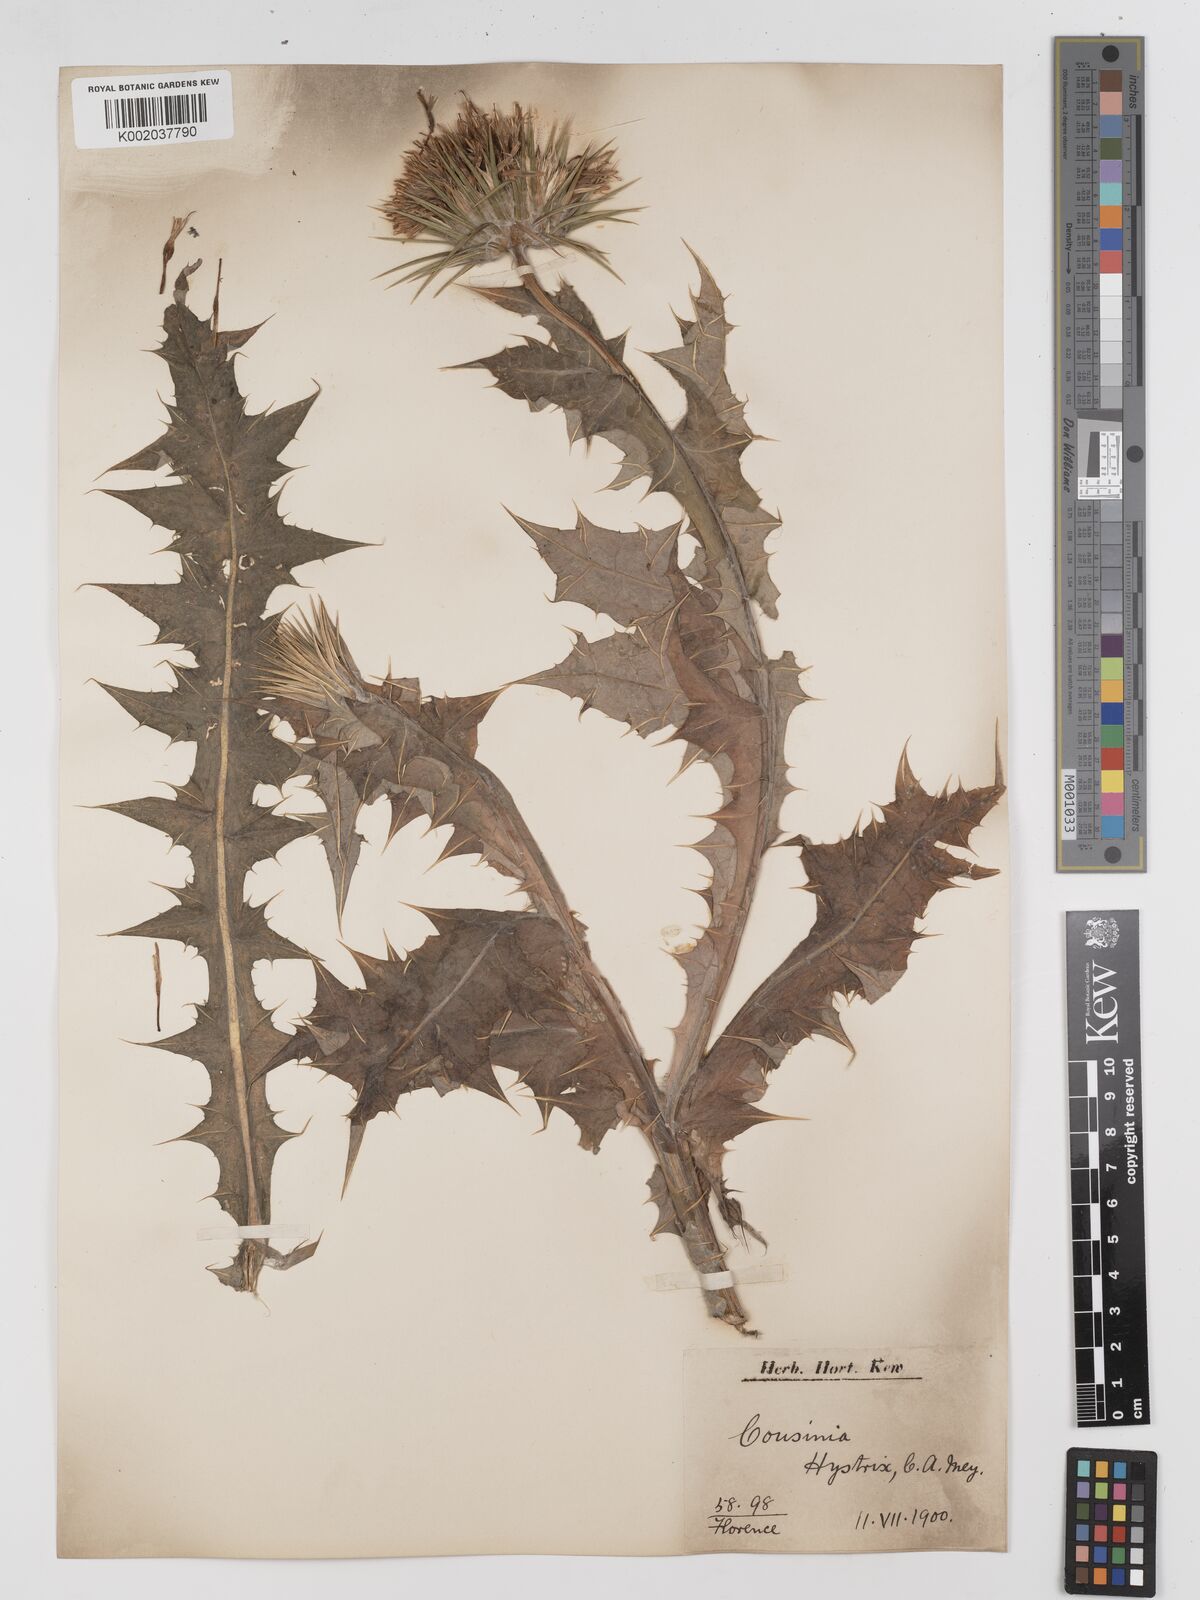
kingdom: Plantae
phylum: Tracheophyta
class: Magnoliopsida
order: Asterales
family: Asteraceae
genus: Cousinia
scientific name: Cousinia pterocaulos
